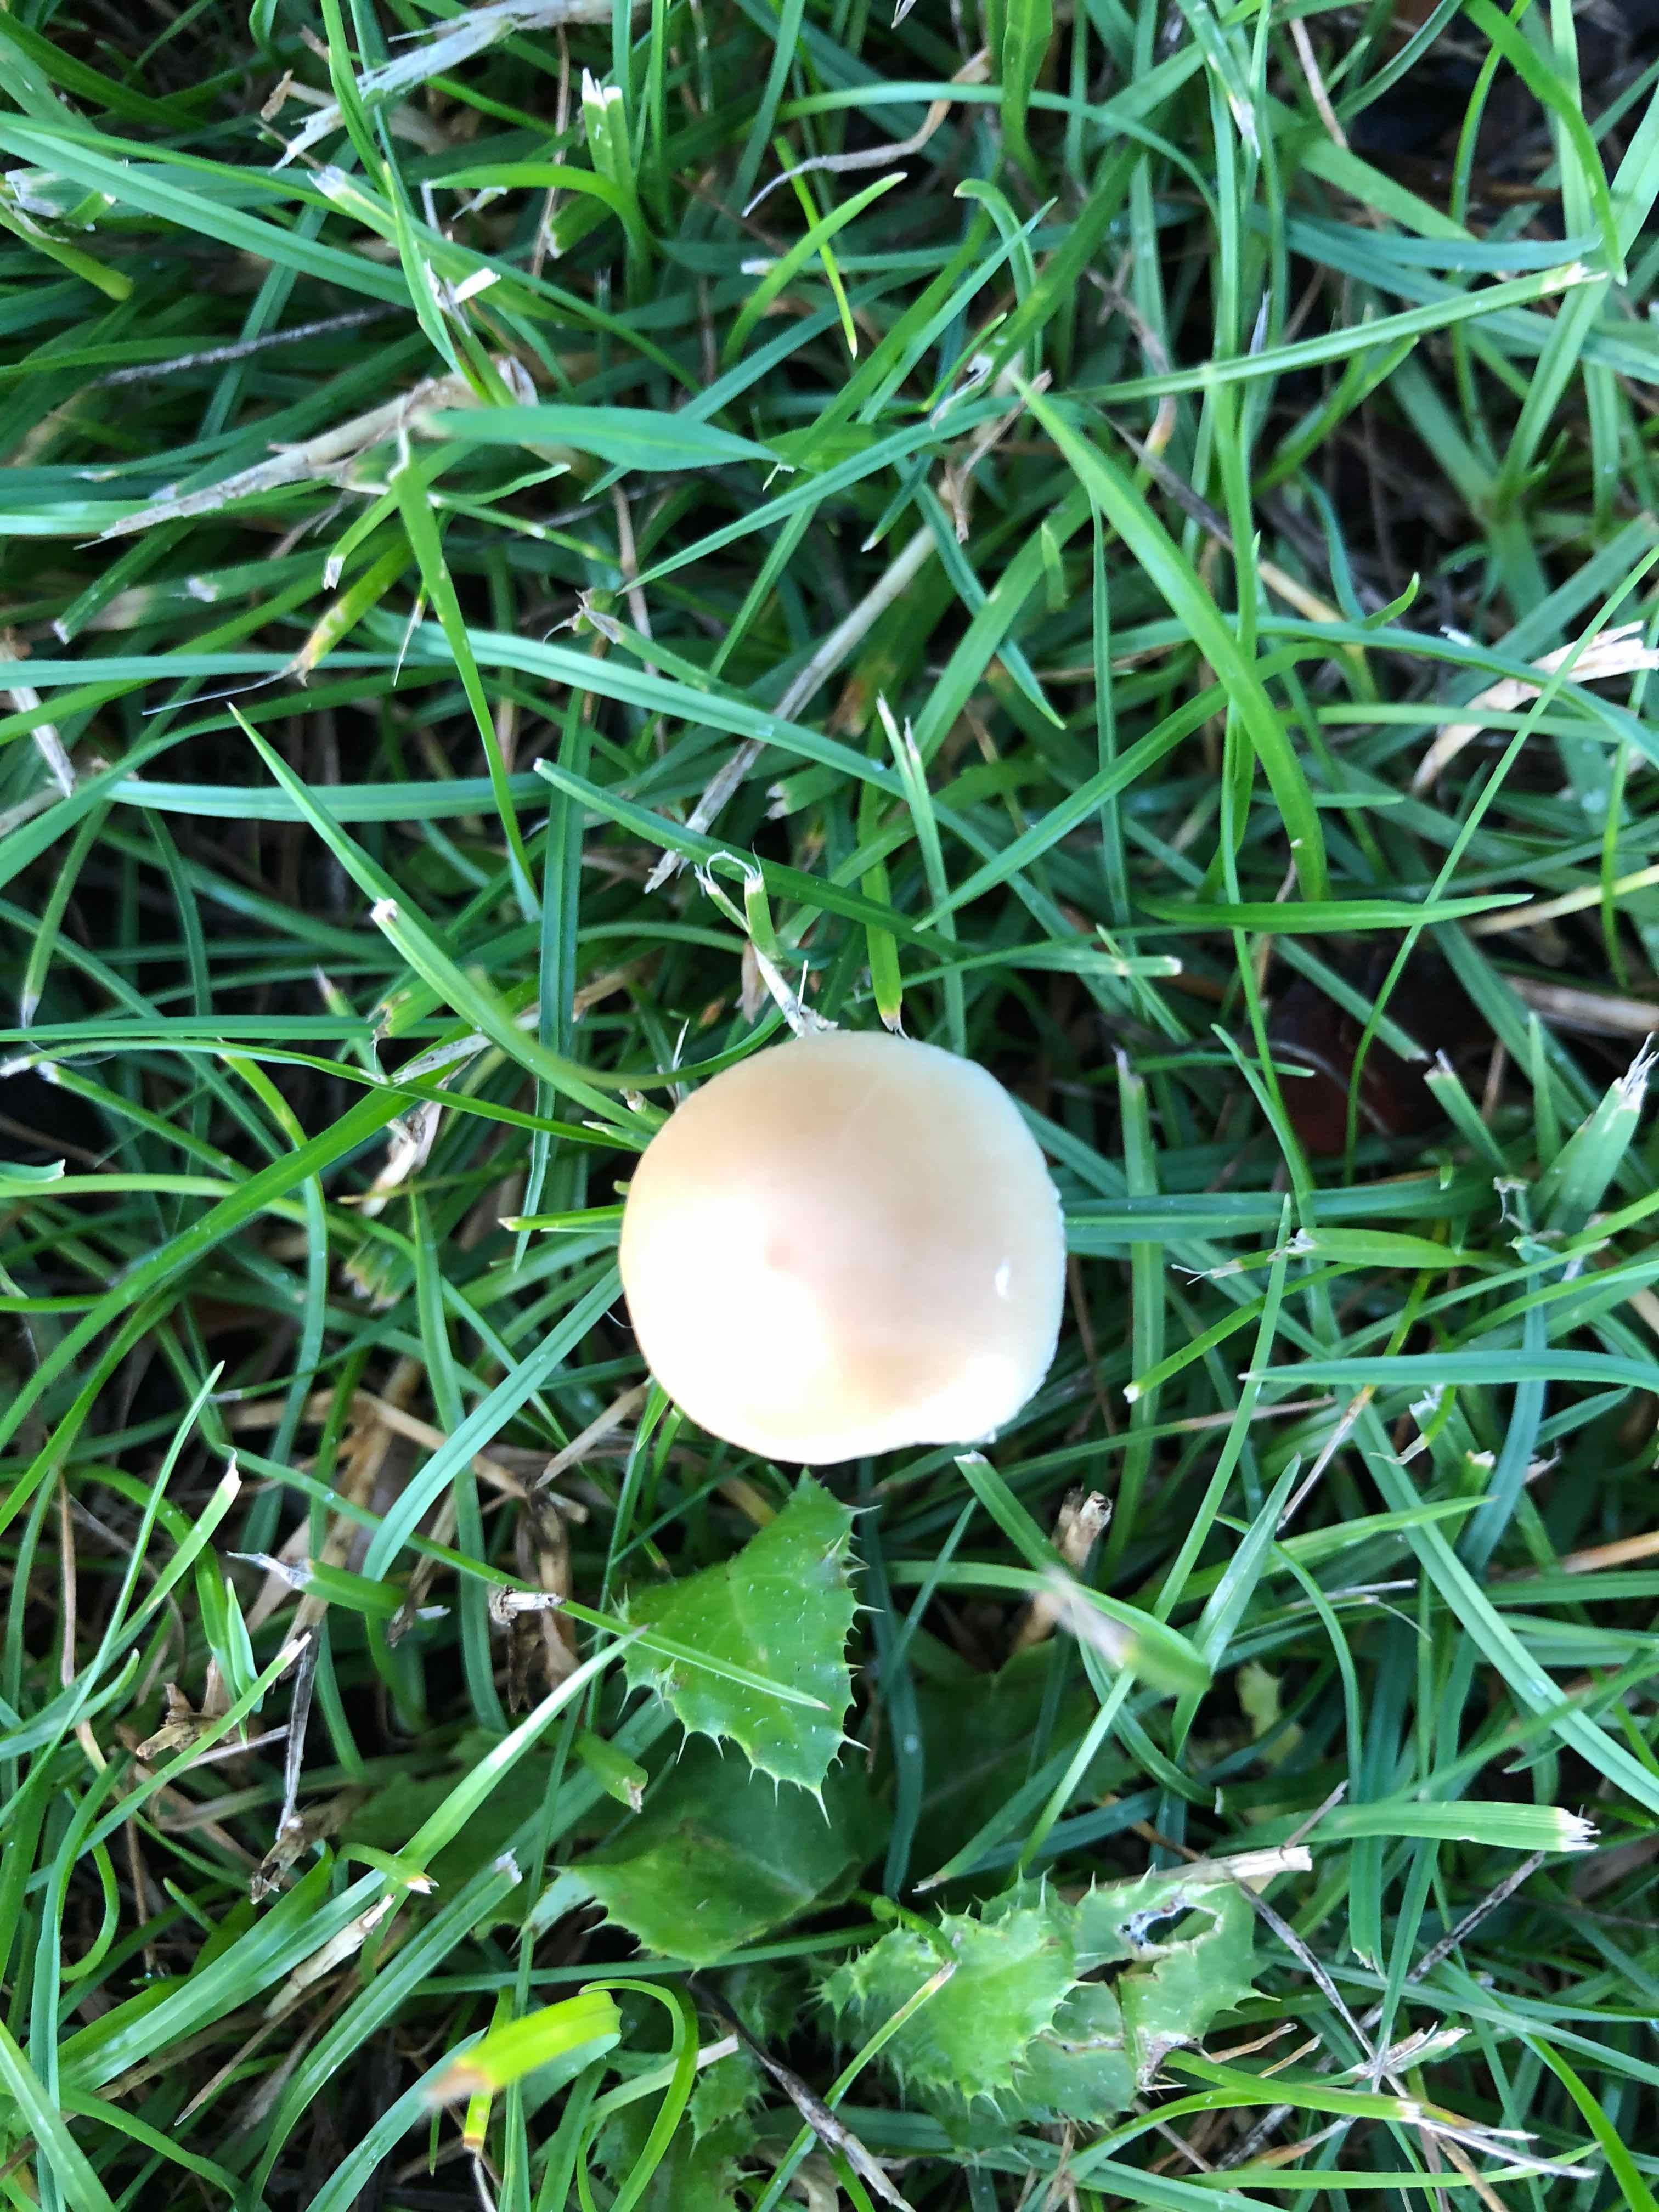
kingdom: Fungi
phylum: Basidiomycota
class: Agaricomycetes
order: Agaricales
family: Psathyrellaceae
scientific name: Psathyrellaceae
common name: mørkhatfamilien
